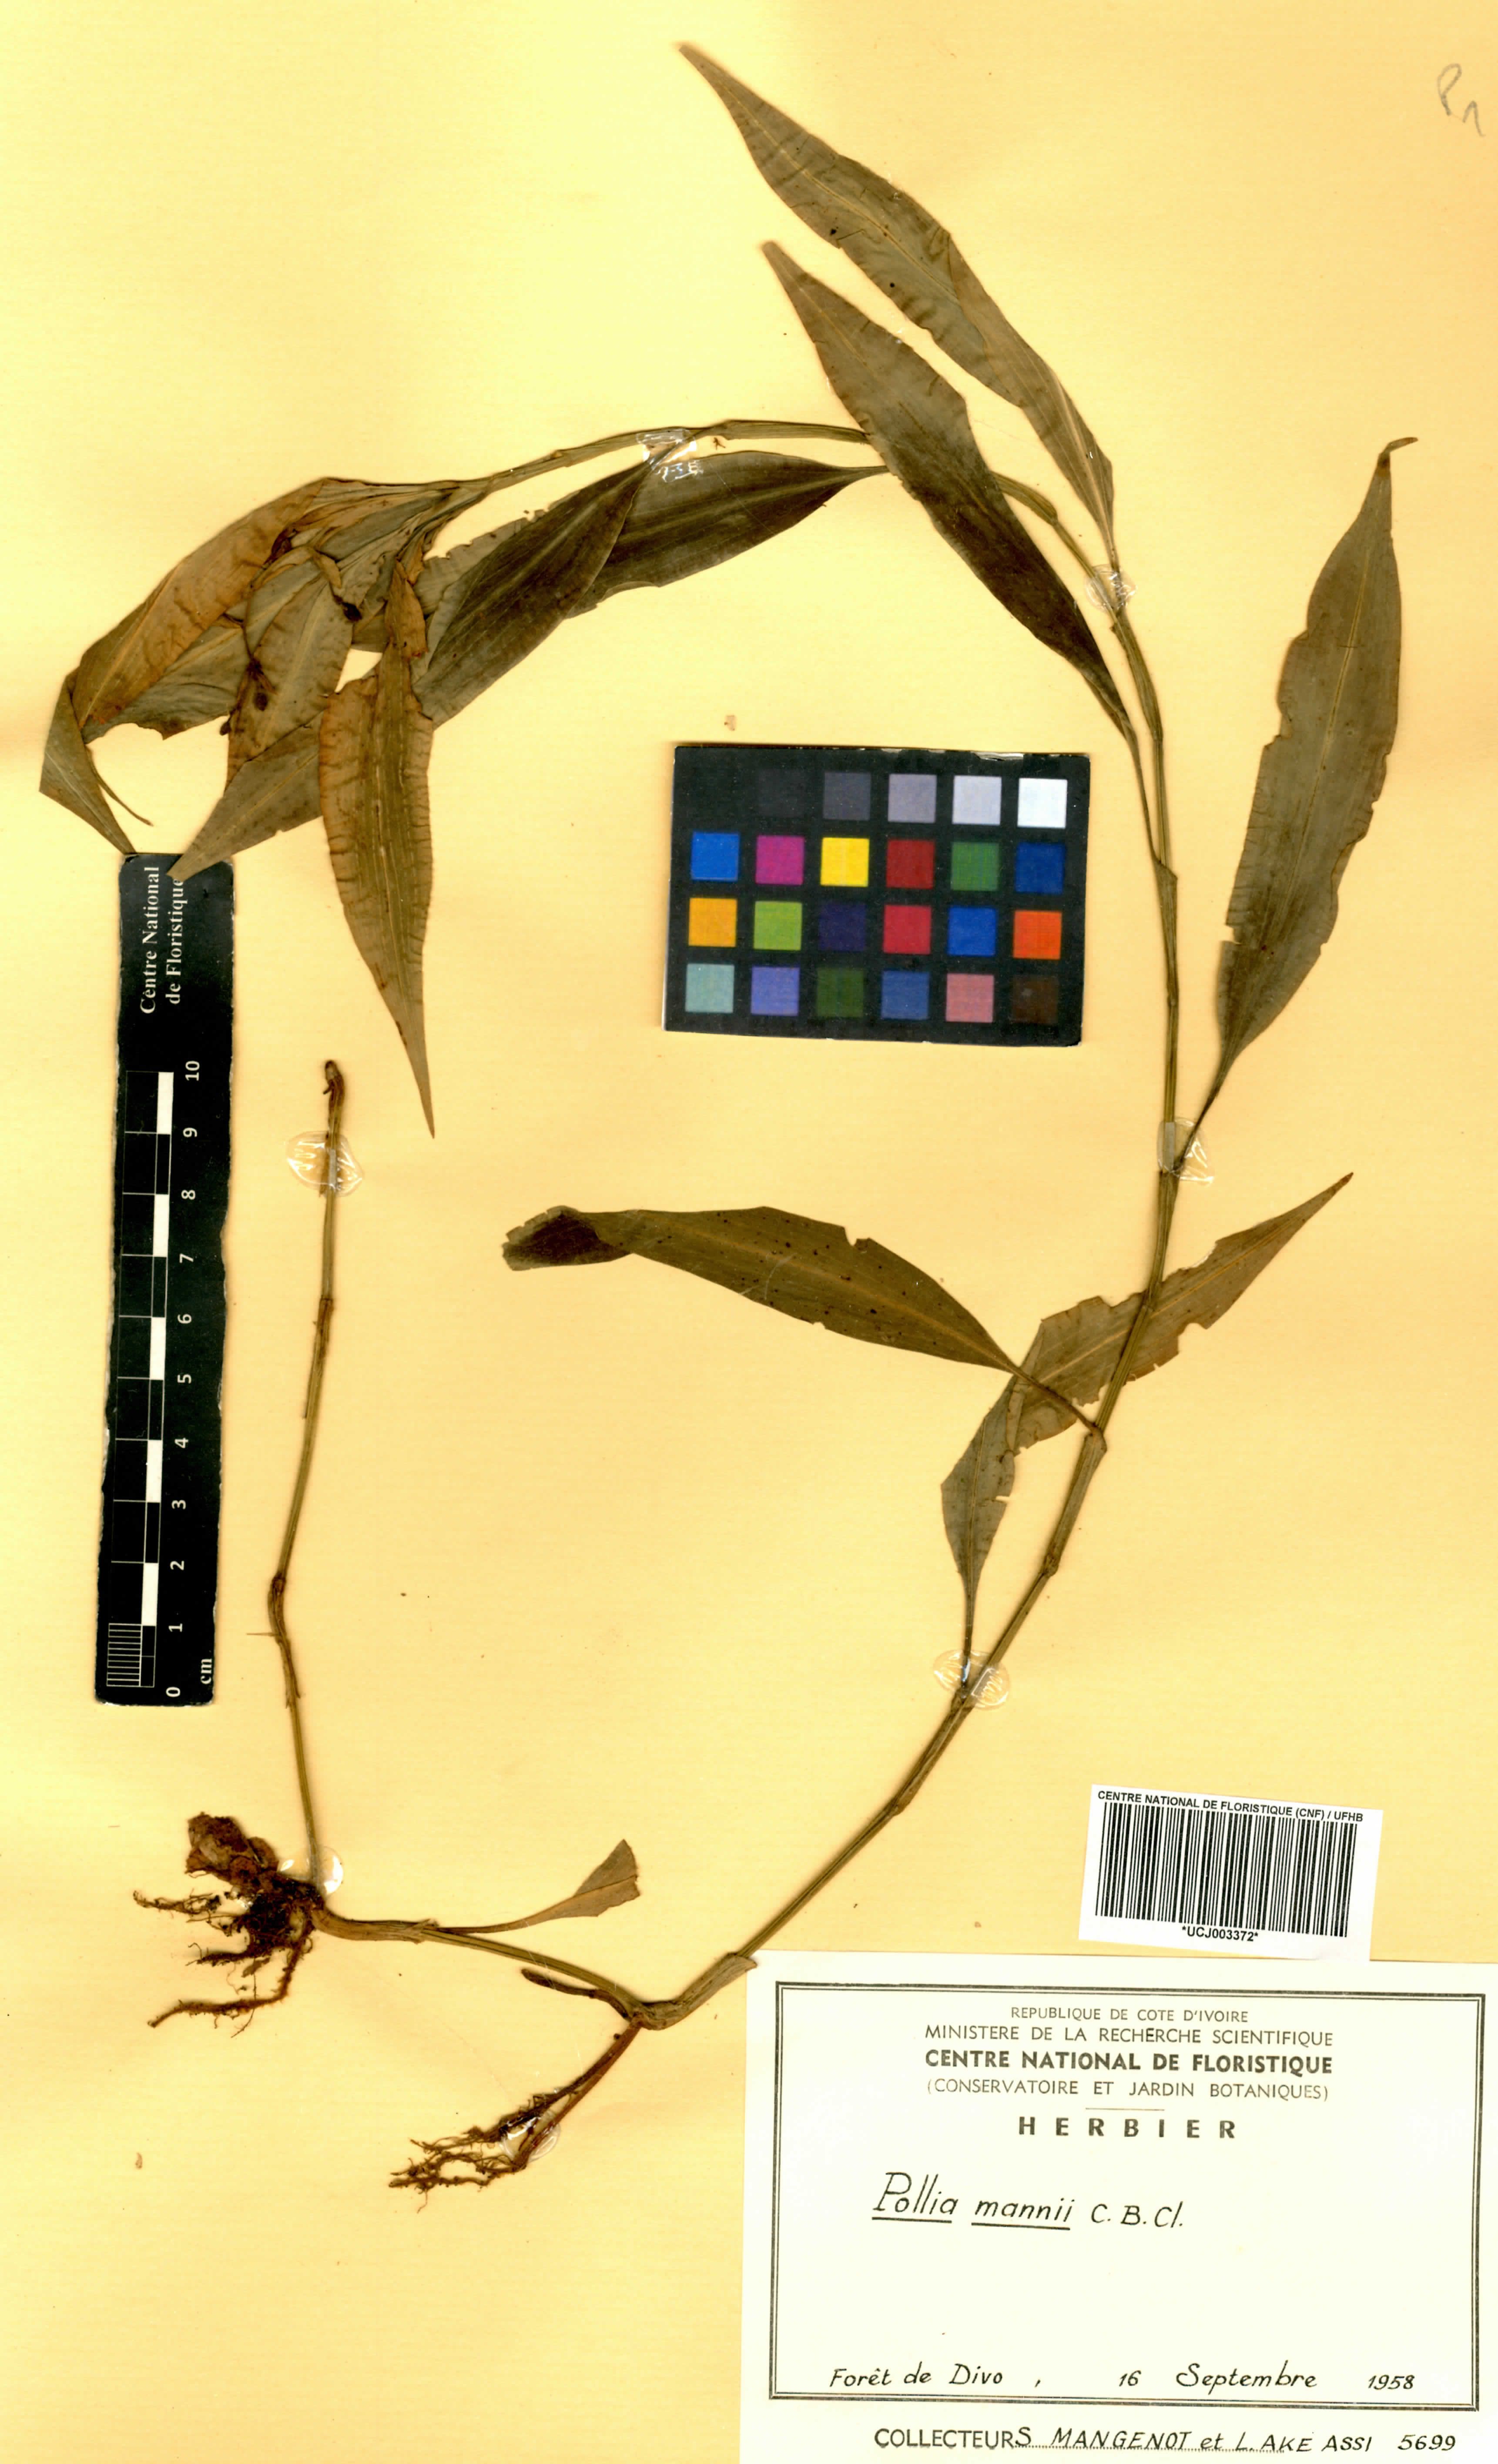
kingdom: Plantae
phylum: Tracheophyta
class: Liliopsida
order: Commelinales
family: Commelinaceae
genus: Pollia
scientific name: Pollia mannii
